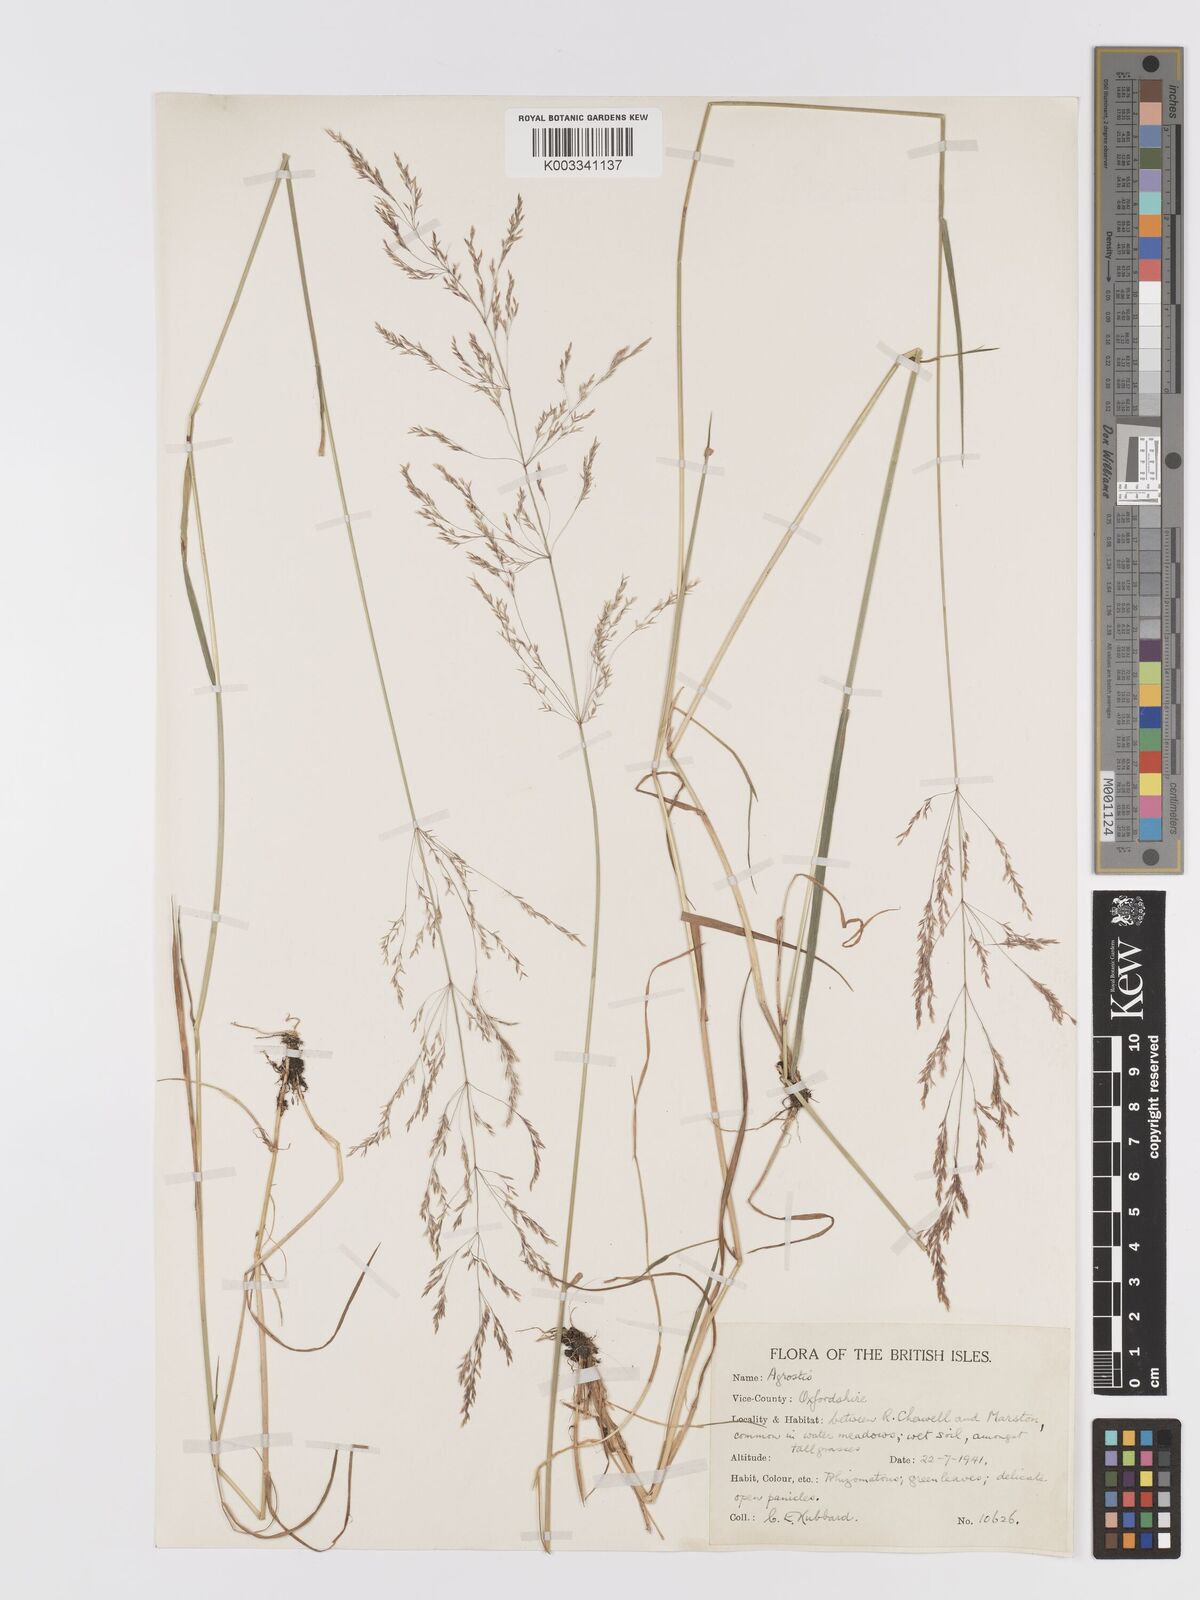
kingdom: Plantae
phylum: Tracheophyta
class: Liliopsida
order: Poales
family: Poaceae
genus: Agrostis
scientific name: Agrostis gigantea
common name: Black bent
